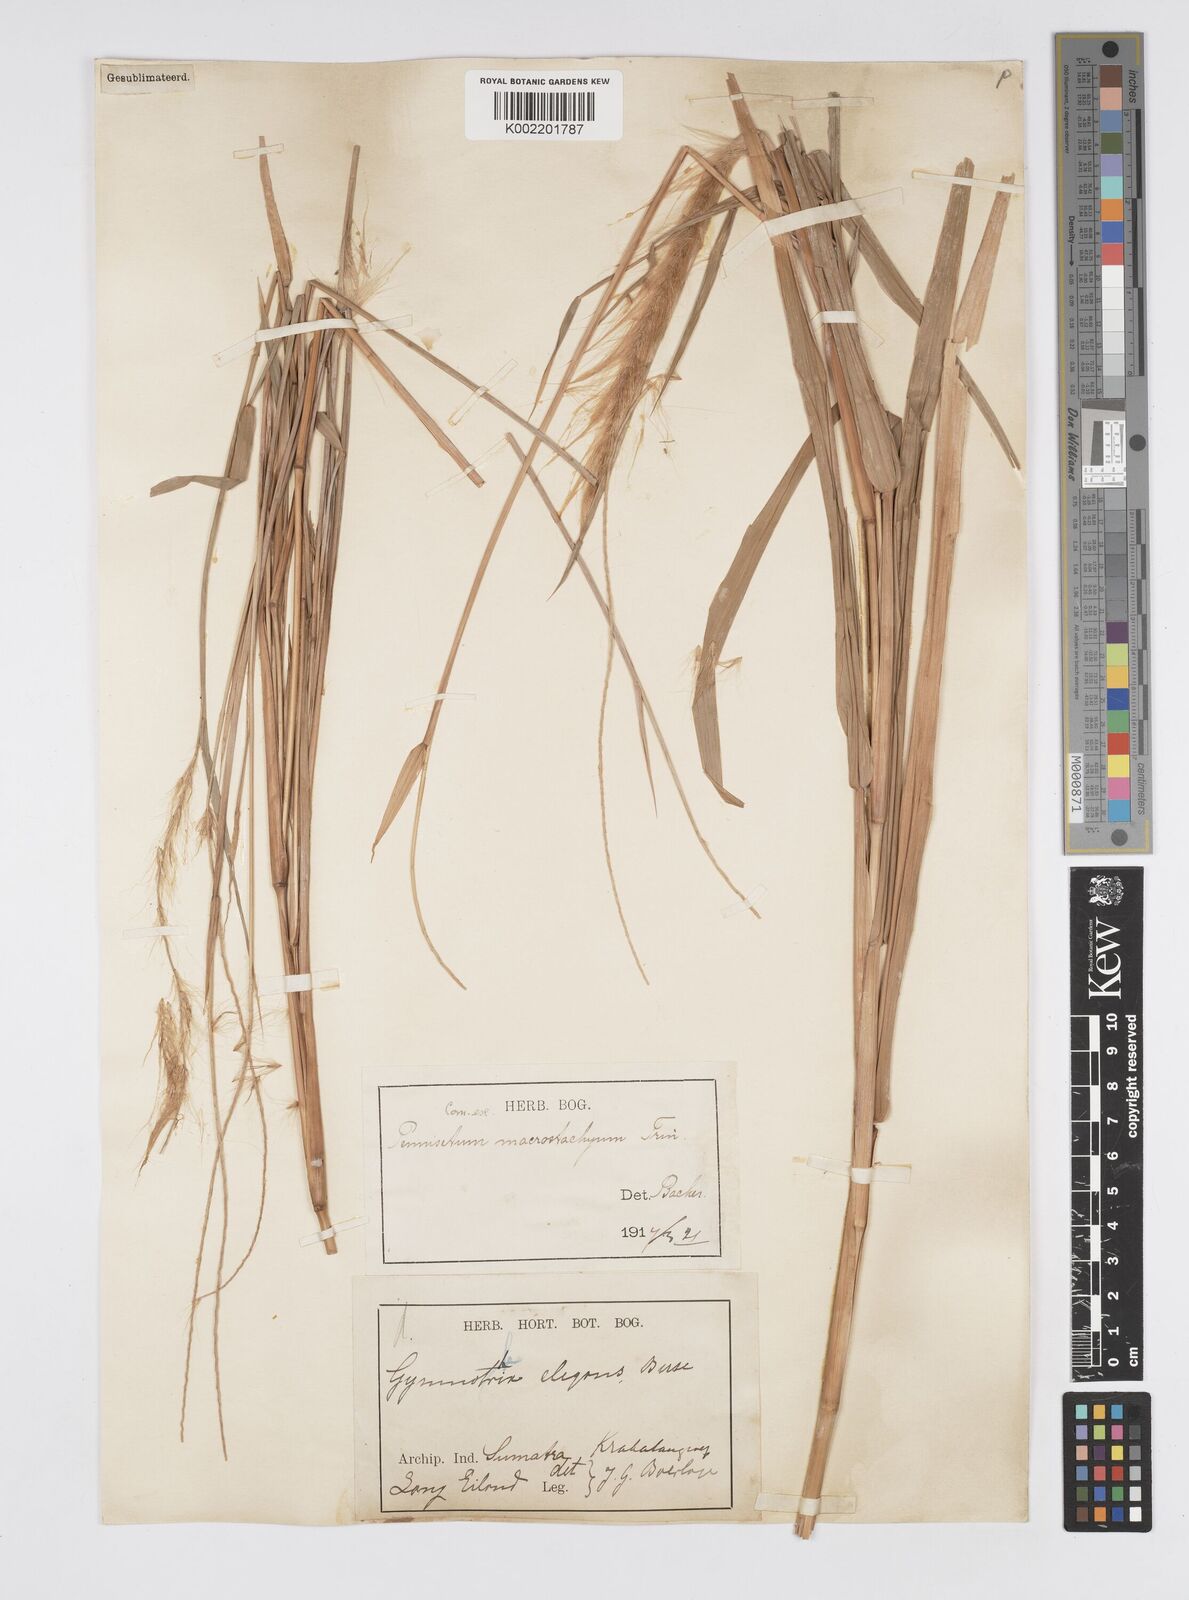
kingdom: Plantae
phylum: Tracheophyta
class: Liliopsida
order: Poales
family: Poaceae
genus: Cenchrus
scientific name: Cenchrus purpureus
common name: Elephant grass
